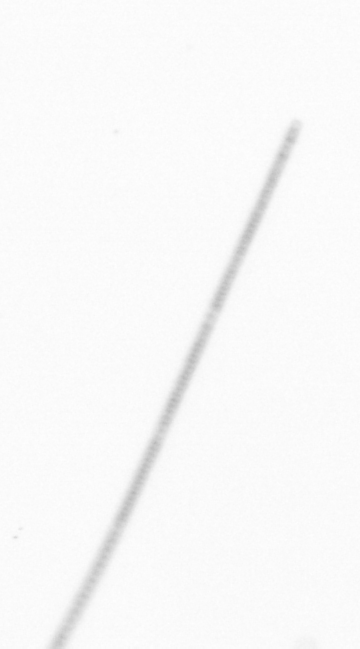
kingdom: Chromista
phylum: Ochrophyta
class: Bacillariophyceae
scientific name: Bacillariophyceae
